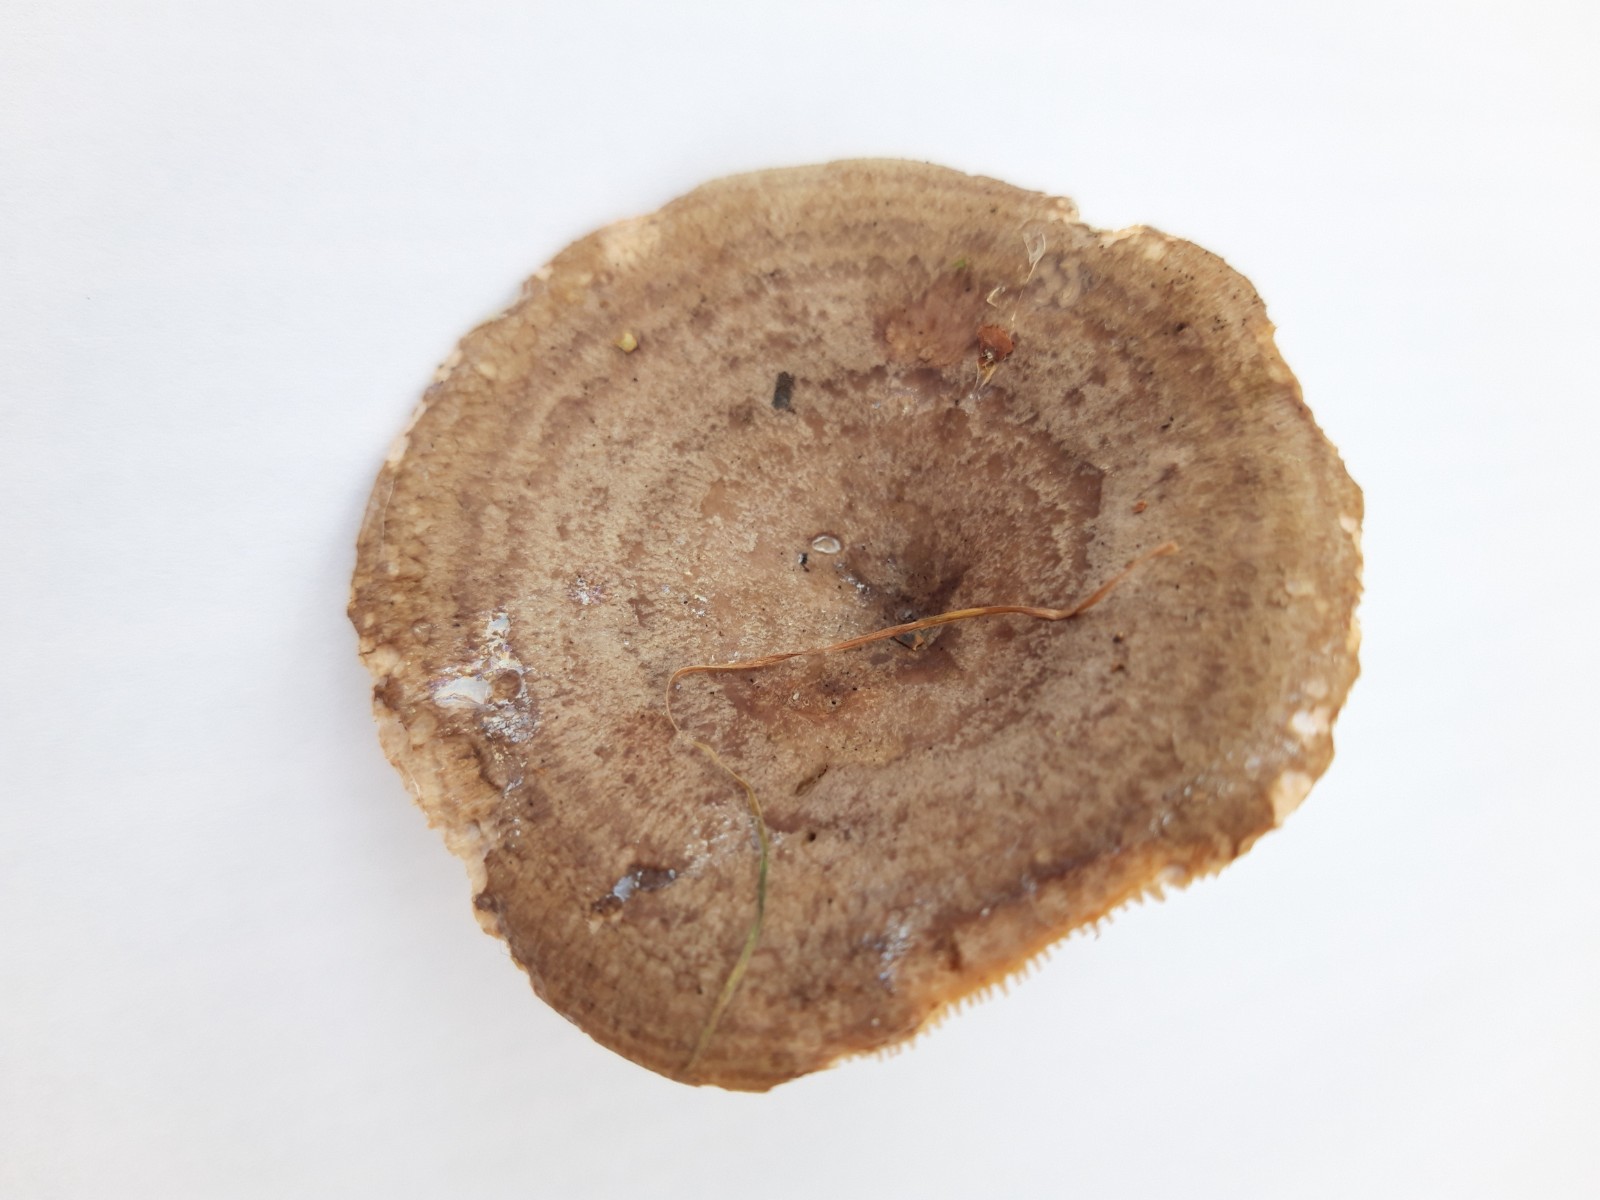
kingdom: Fungi
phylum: Basidiomycota
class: Agaricomycetes
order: Russulales
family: Russulaceae
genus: Lactarius
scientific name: Lactarius
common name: mælkehat
